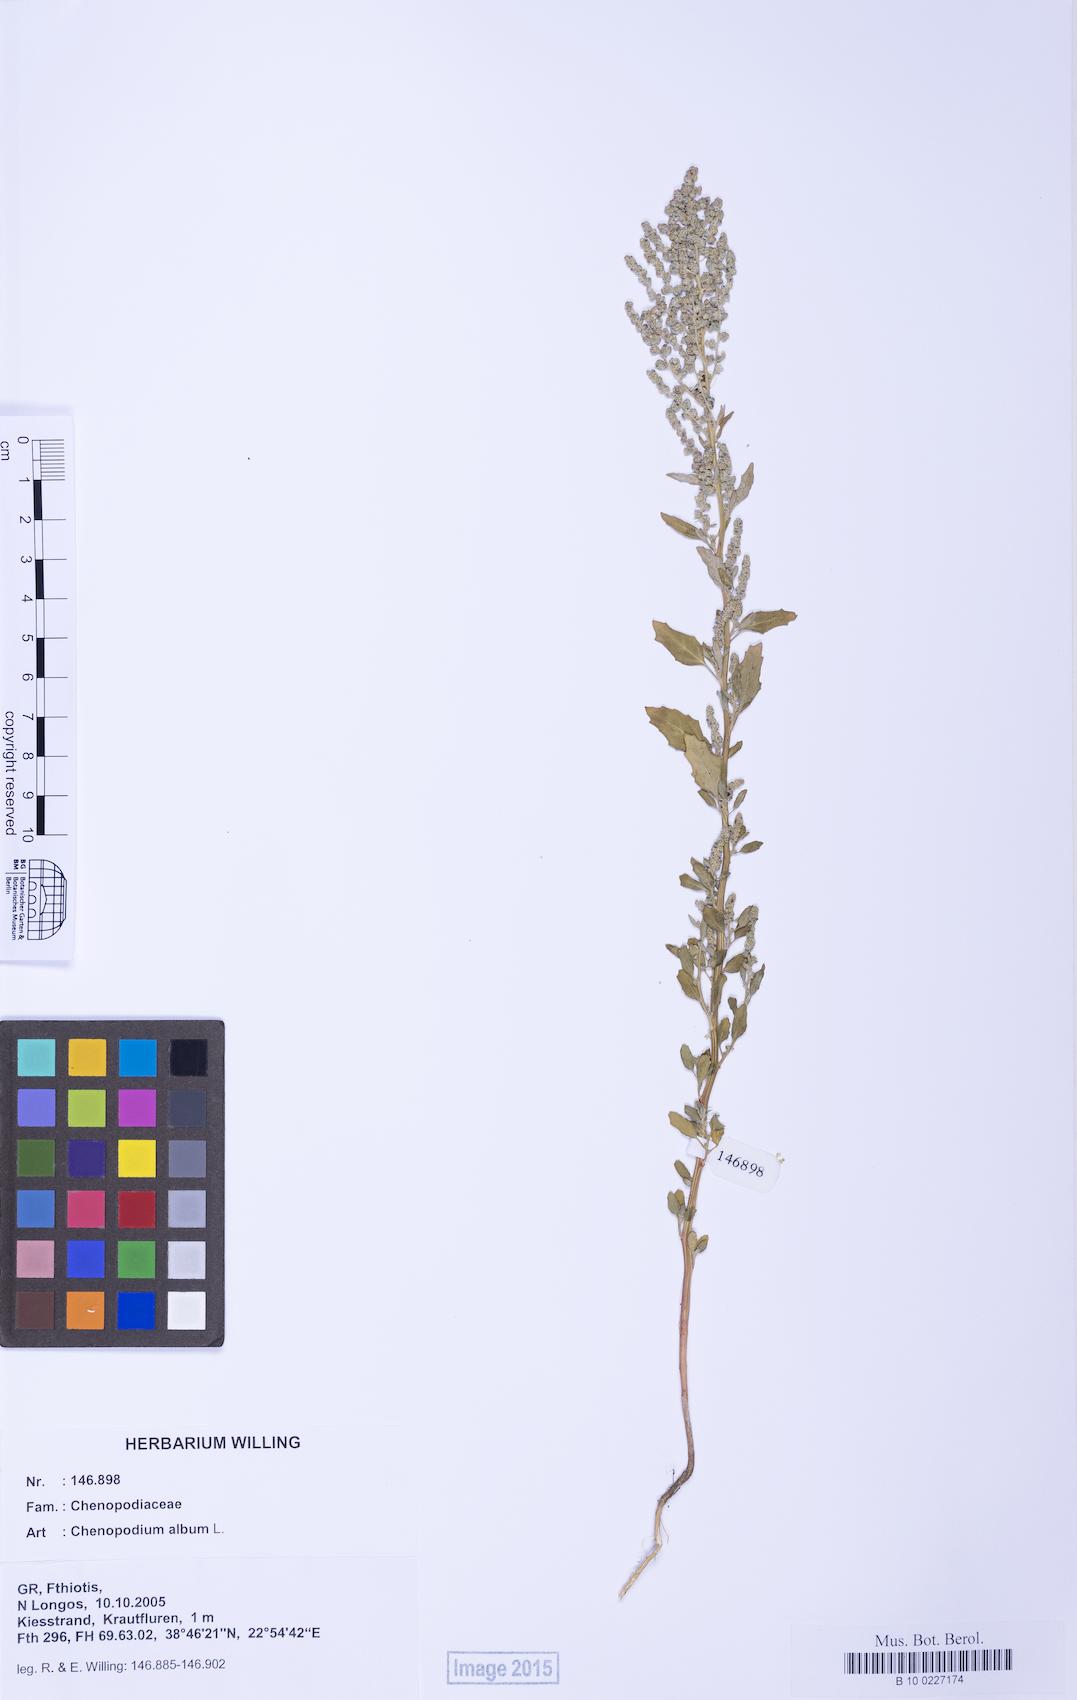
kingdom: Plantae
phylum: Tracheophyta
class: Magnoliopsida
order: Caryophyllales
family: Amaranthaceae
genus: Chenopodium
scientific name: Chenopodium album
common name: Fat-hen
